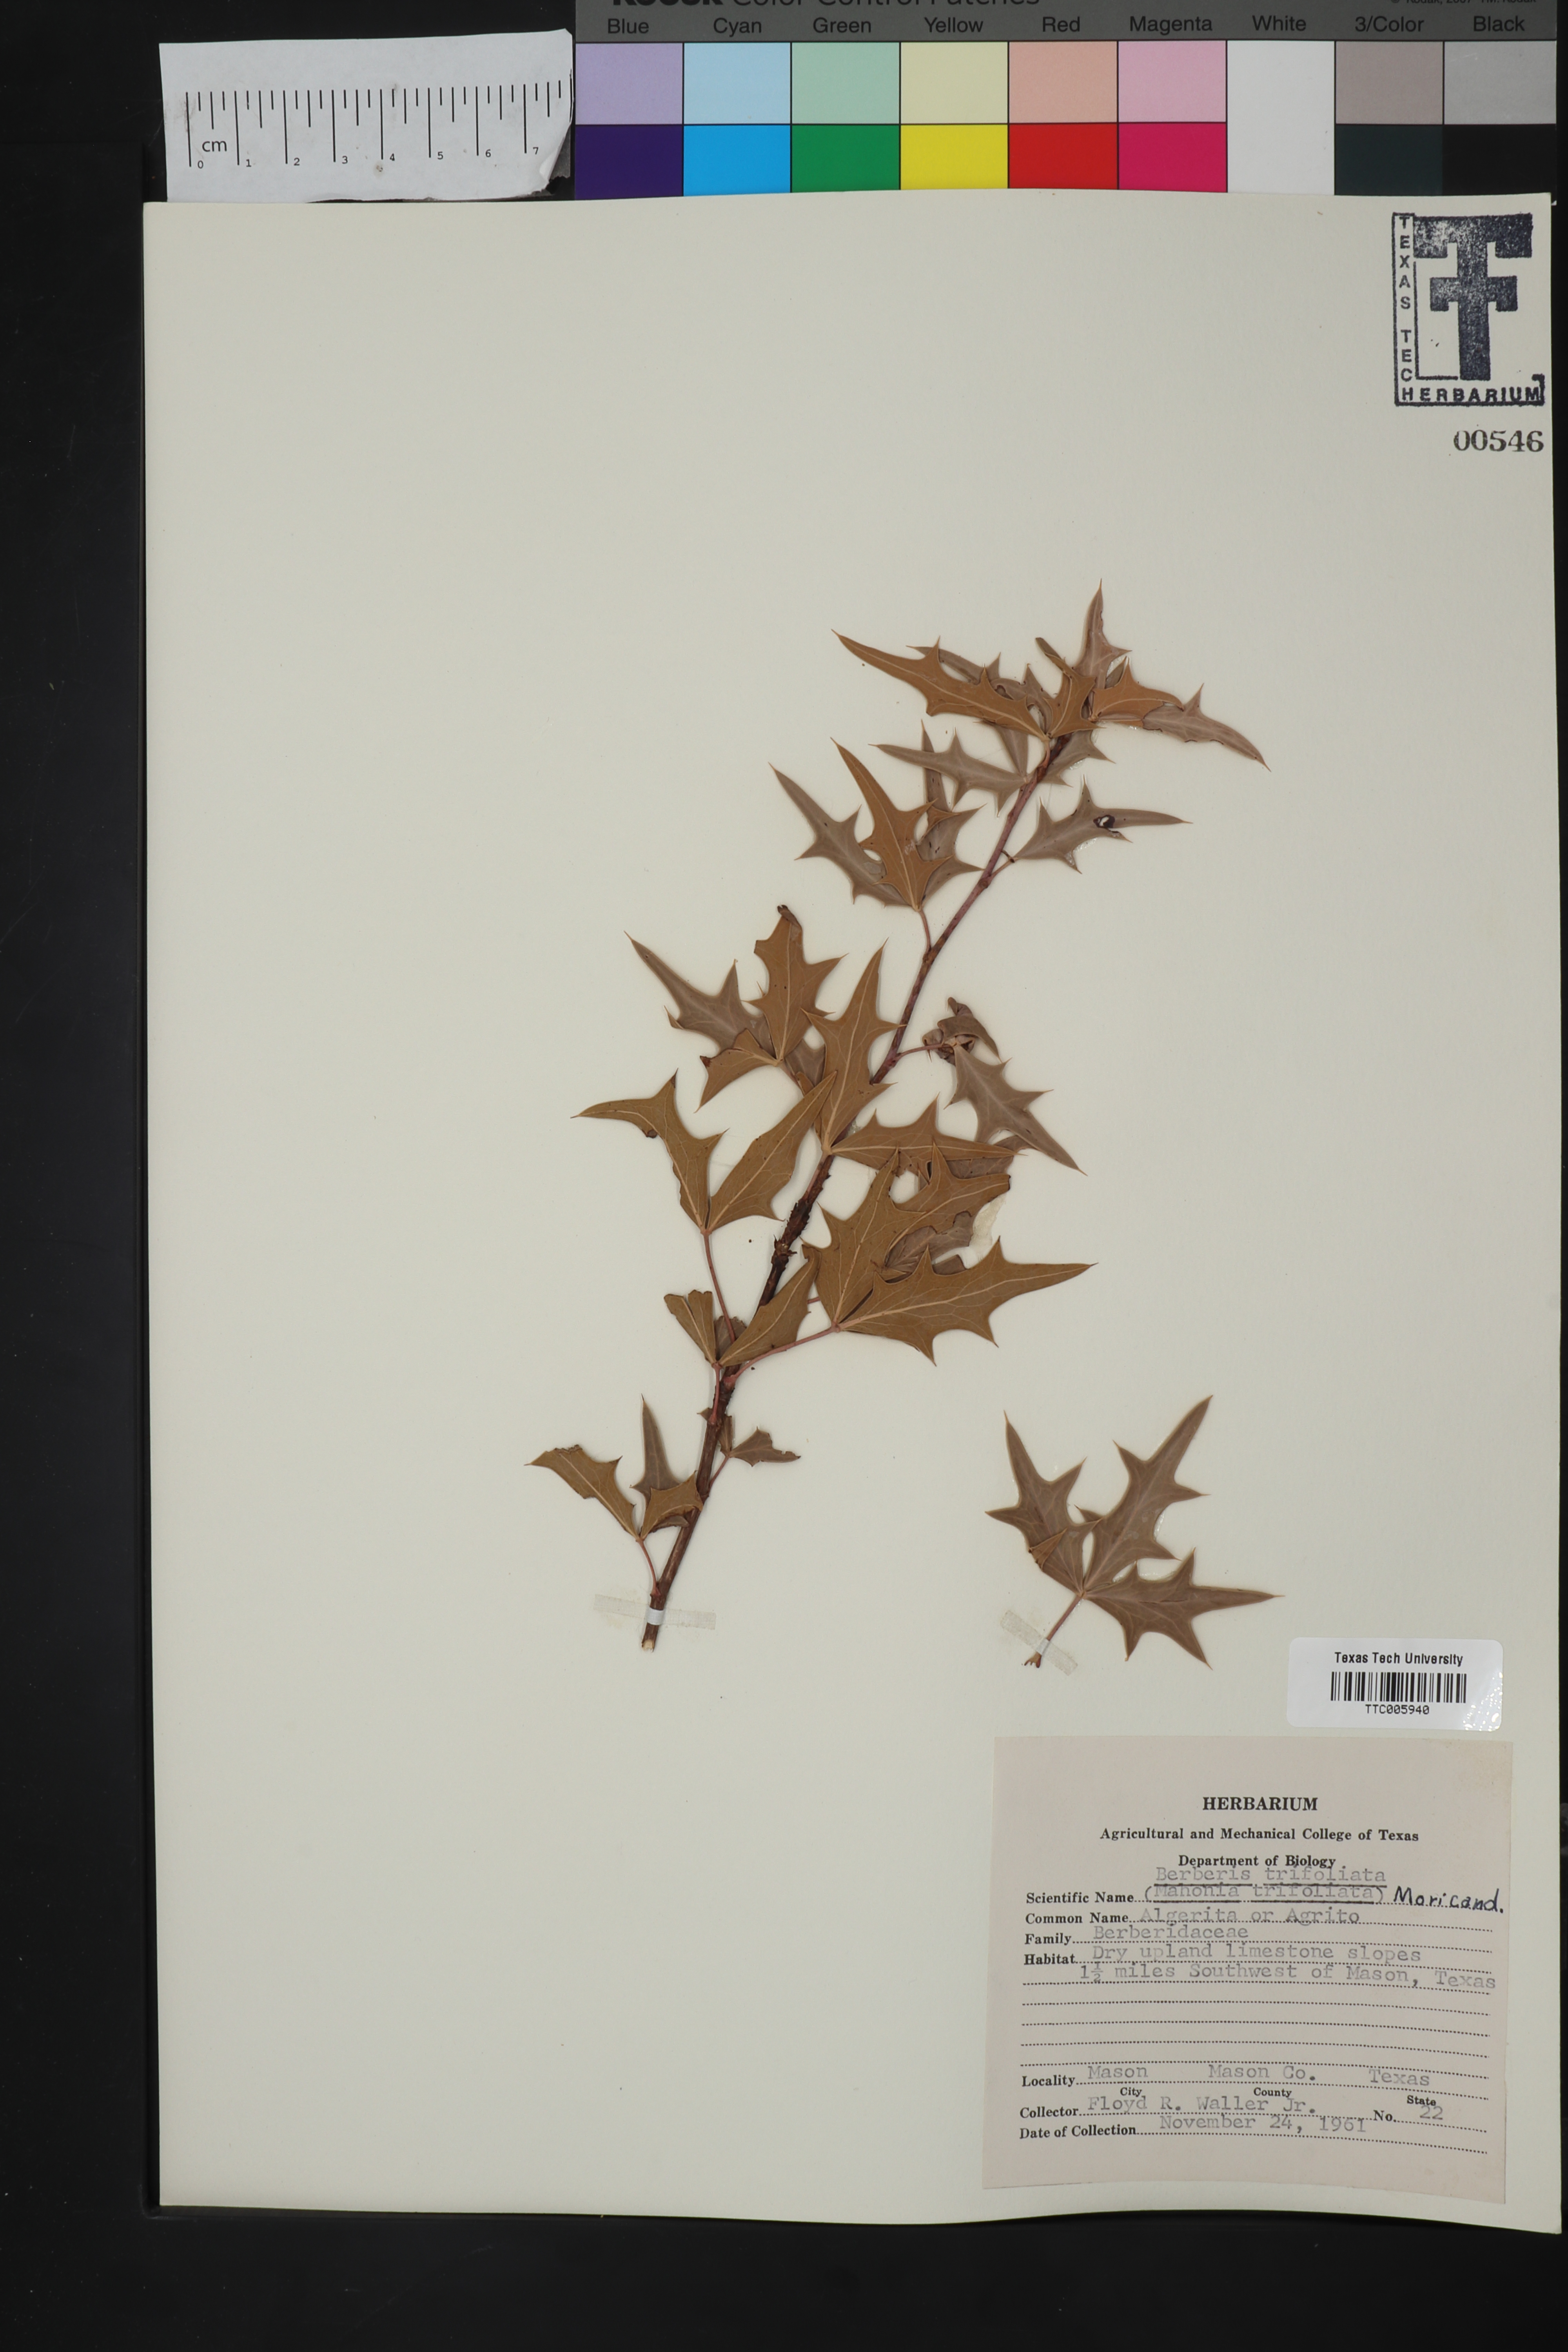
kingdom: Plantae
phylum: Tracheophyta
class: Magnoliopsida
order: Ranunculales
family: Berberidaceae
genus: Alloberberis
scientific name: Alloberberis trifoliolata
